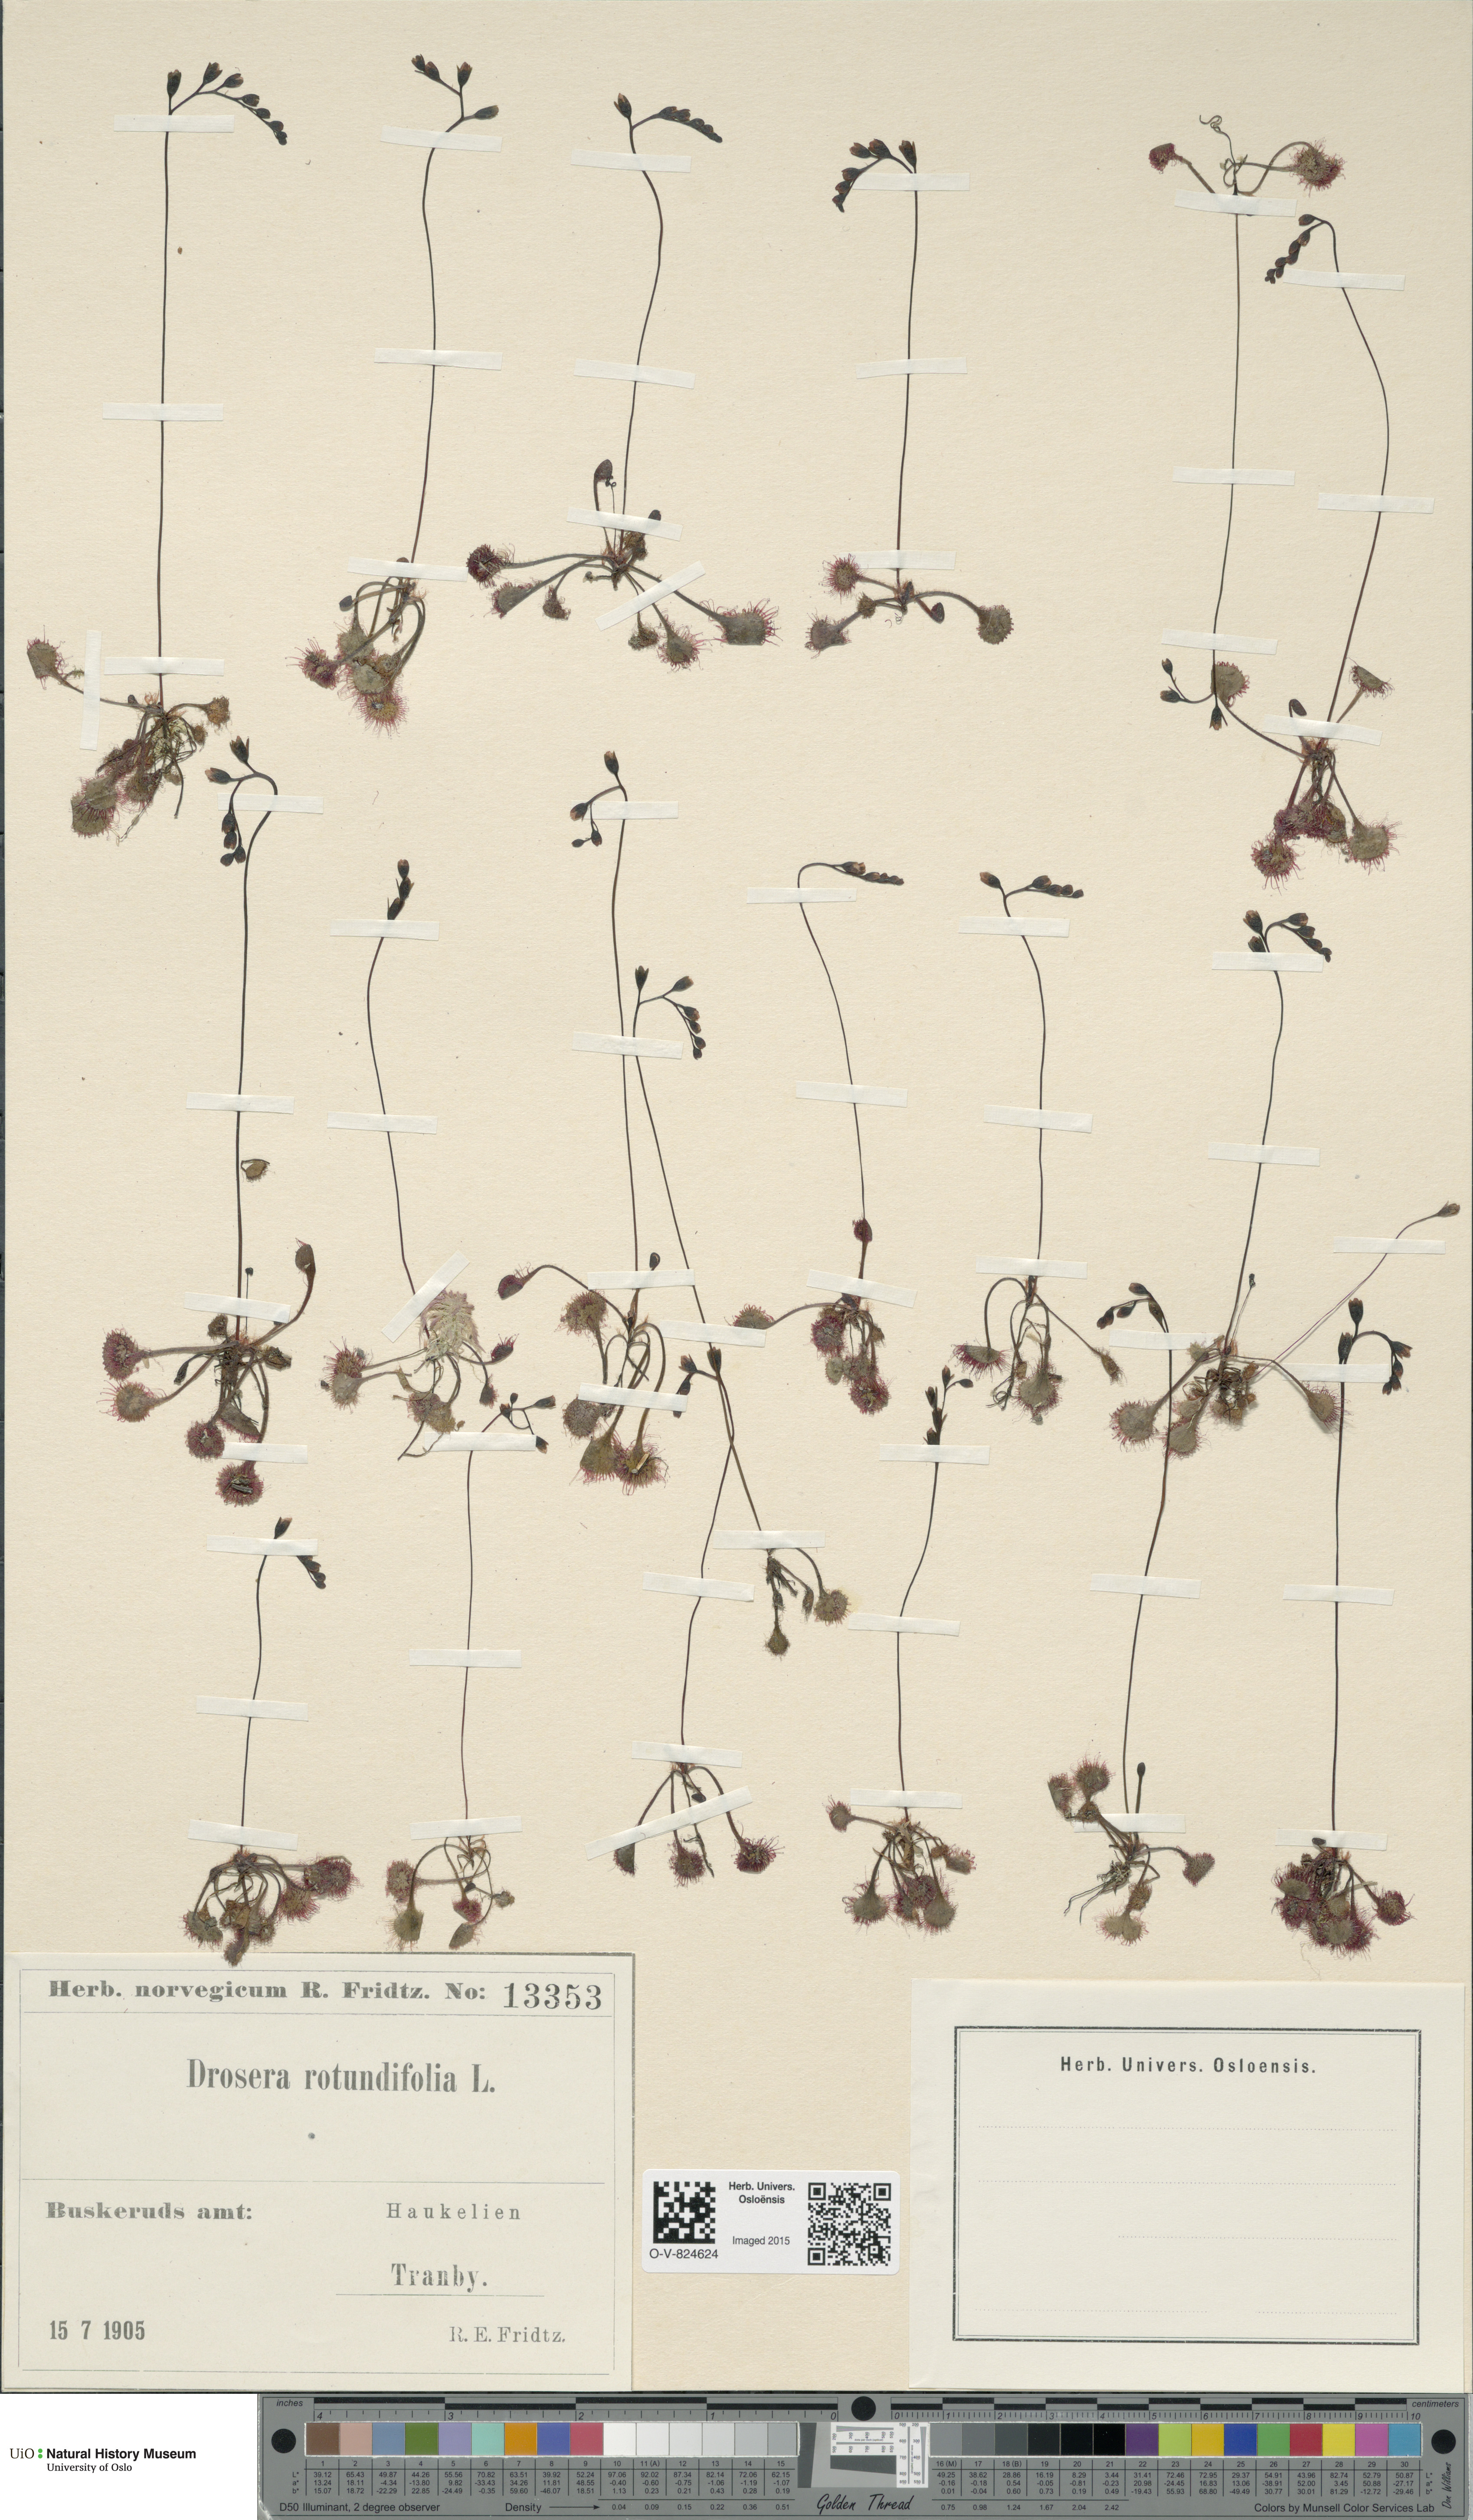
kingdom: Plantae
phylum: Tracheophyta
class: Magnoliopsida
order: Caryophyllales
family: Droseraceae
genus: Drosera
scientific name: Drosera rotundifolia
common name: Round-leaved sundew
